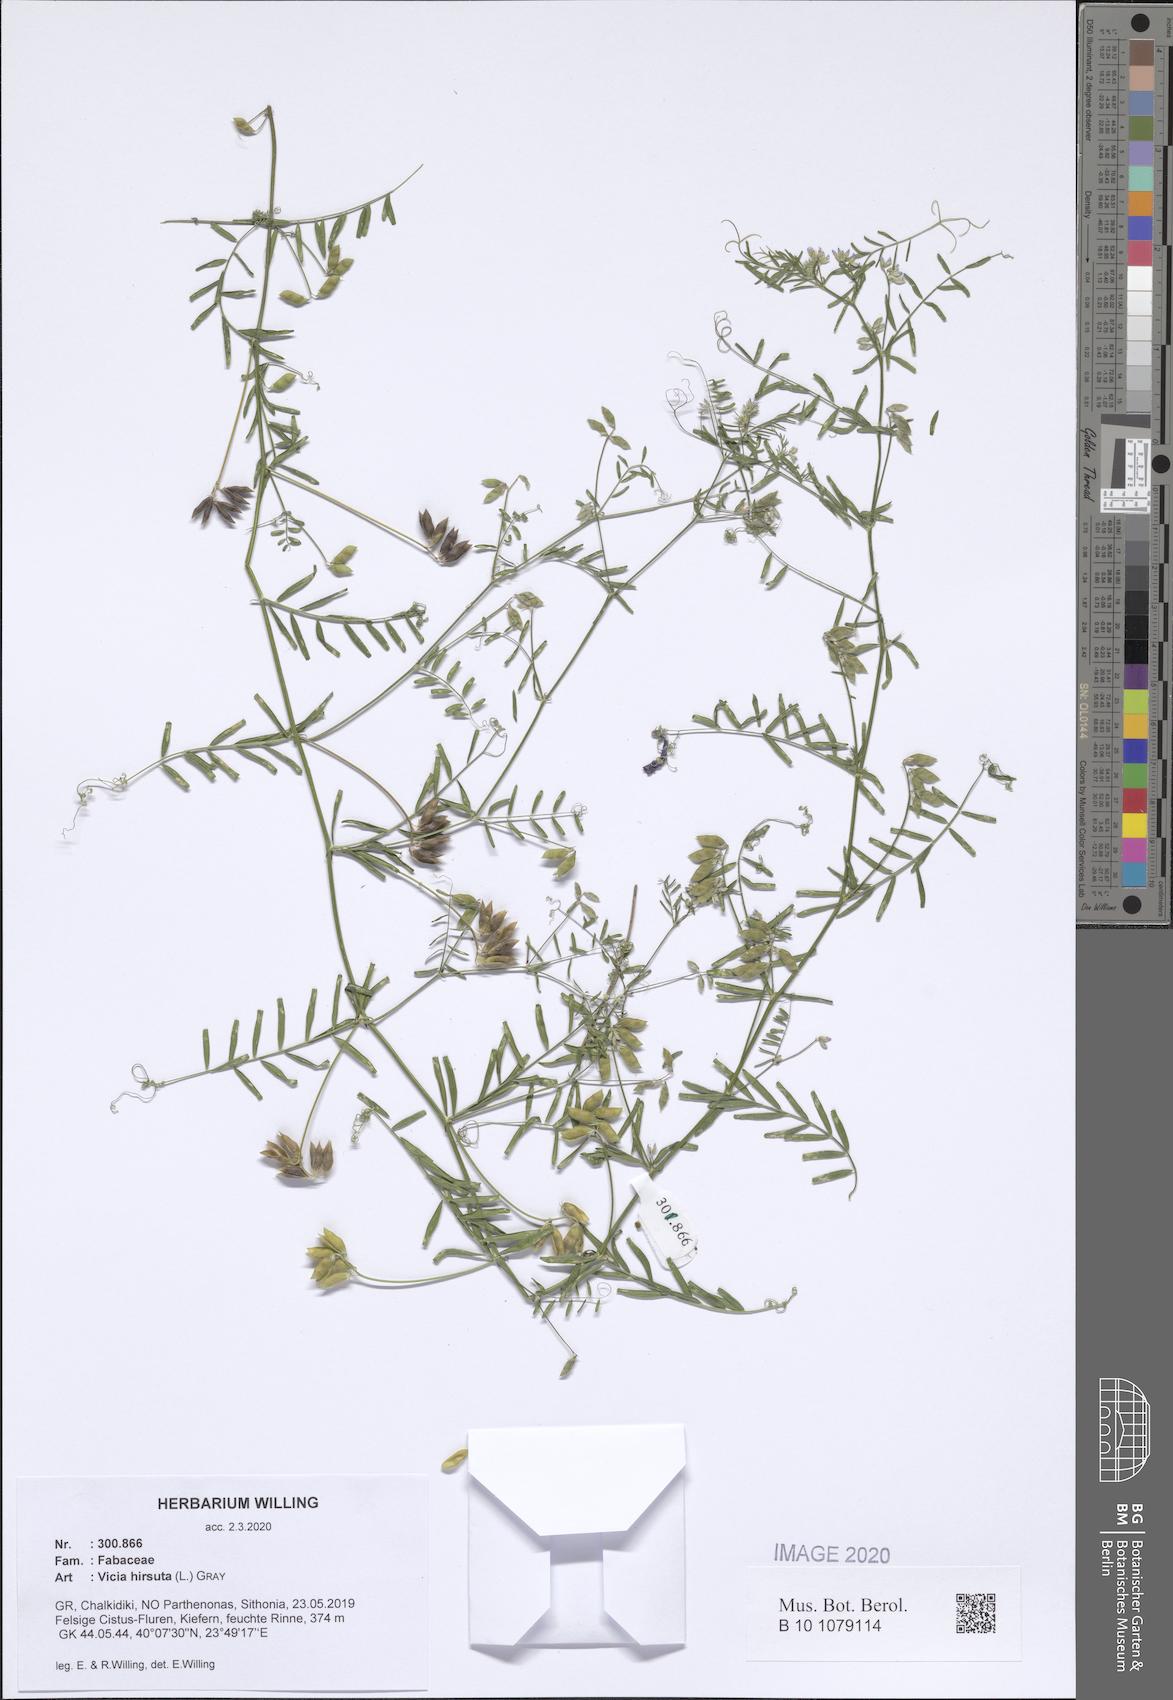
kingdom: Plantae
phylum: Tracheophyta
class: Magnoliopsida
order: Fabales
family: Fabaceae
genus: Vicia
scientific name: Vicia hirsuta
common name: Tiny vetch
